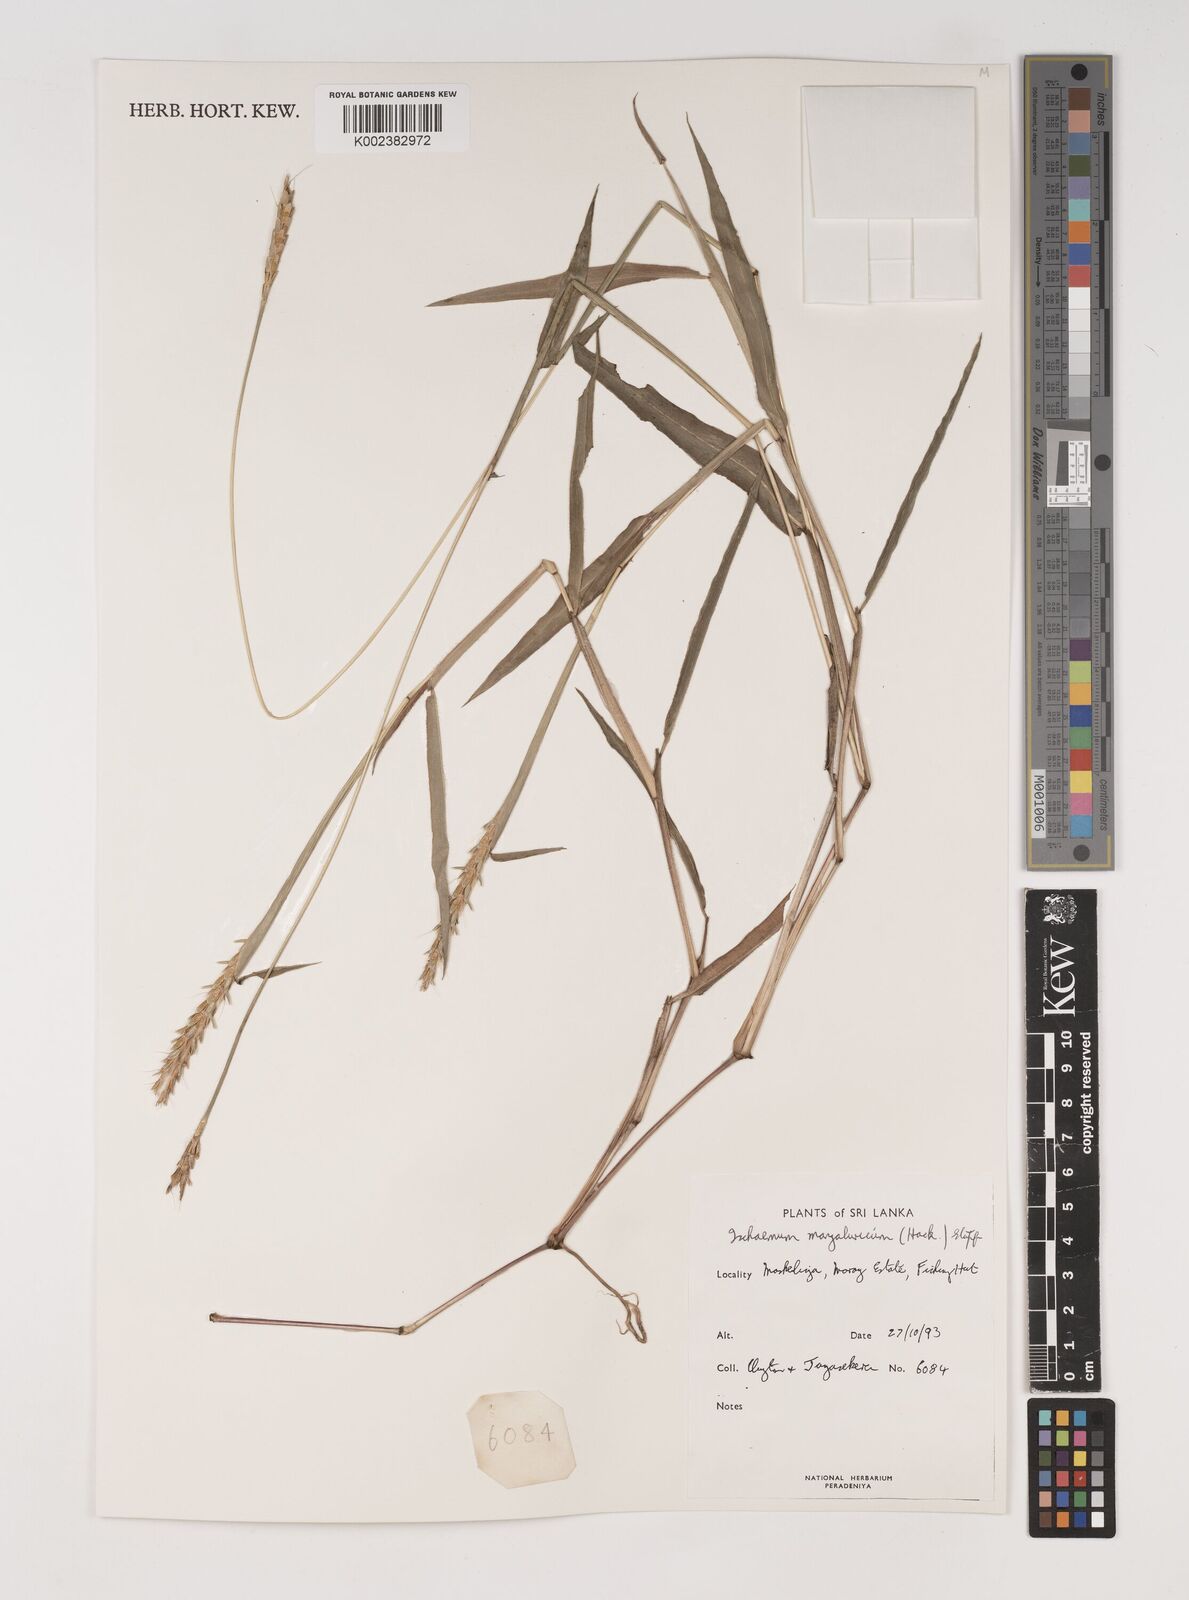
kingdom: Plantae
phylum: Tracheophyta
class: Liliopsida
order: Poales
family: Poaceae
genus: Ischaemum
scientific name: Ischaemum barbatum
